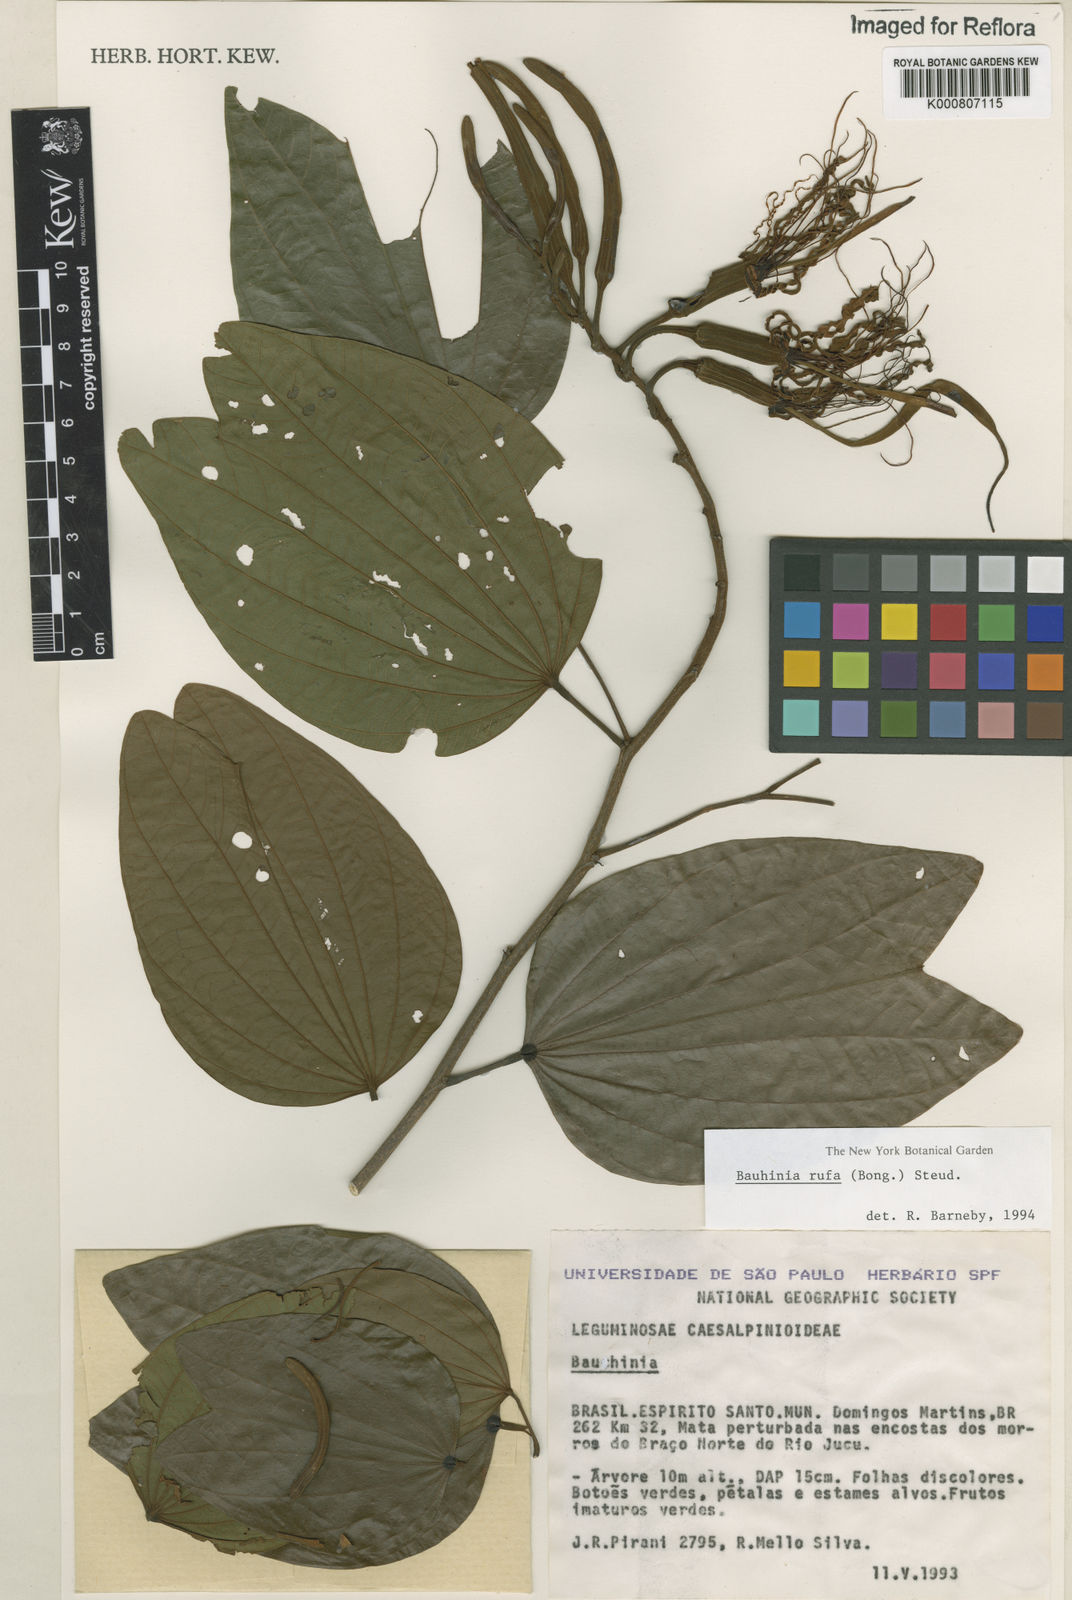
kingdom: Plantae
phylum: Tracheophyta
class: Magnoliopsida
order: Fabales
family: Fabaceae
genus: Bauhinia
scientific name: Bauhinia rufa
